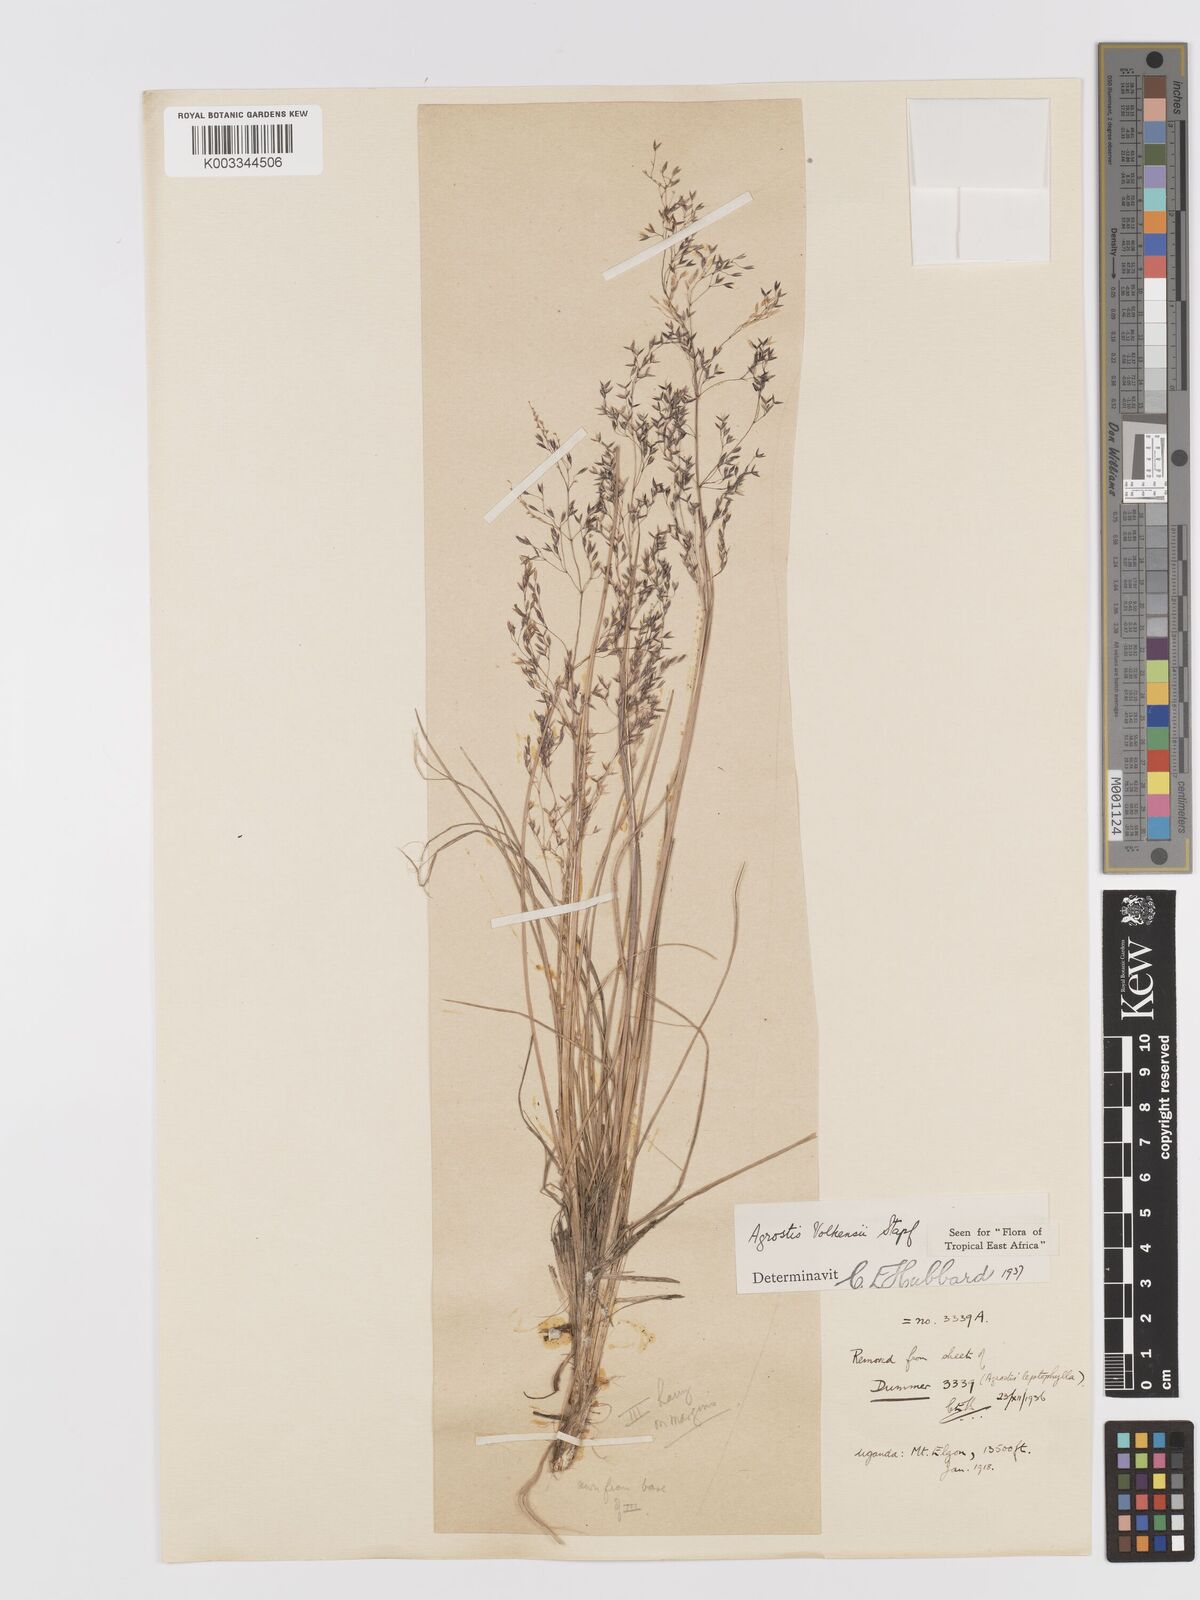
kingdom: Plantae
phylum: Tracheophyta
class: Liliopsida
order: Poales
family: Poaceae
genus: Agrostis
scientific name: Agrostis volkensii
